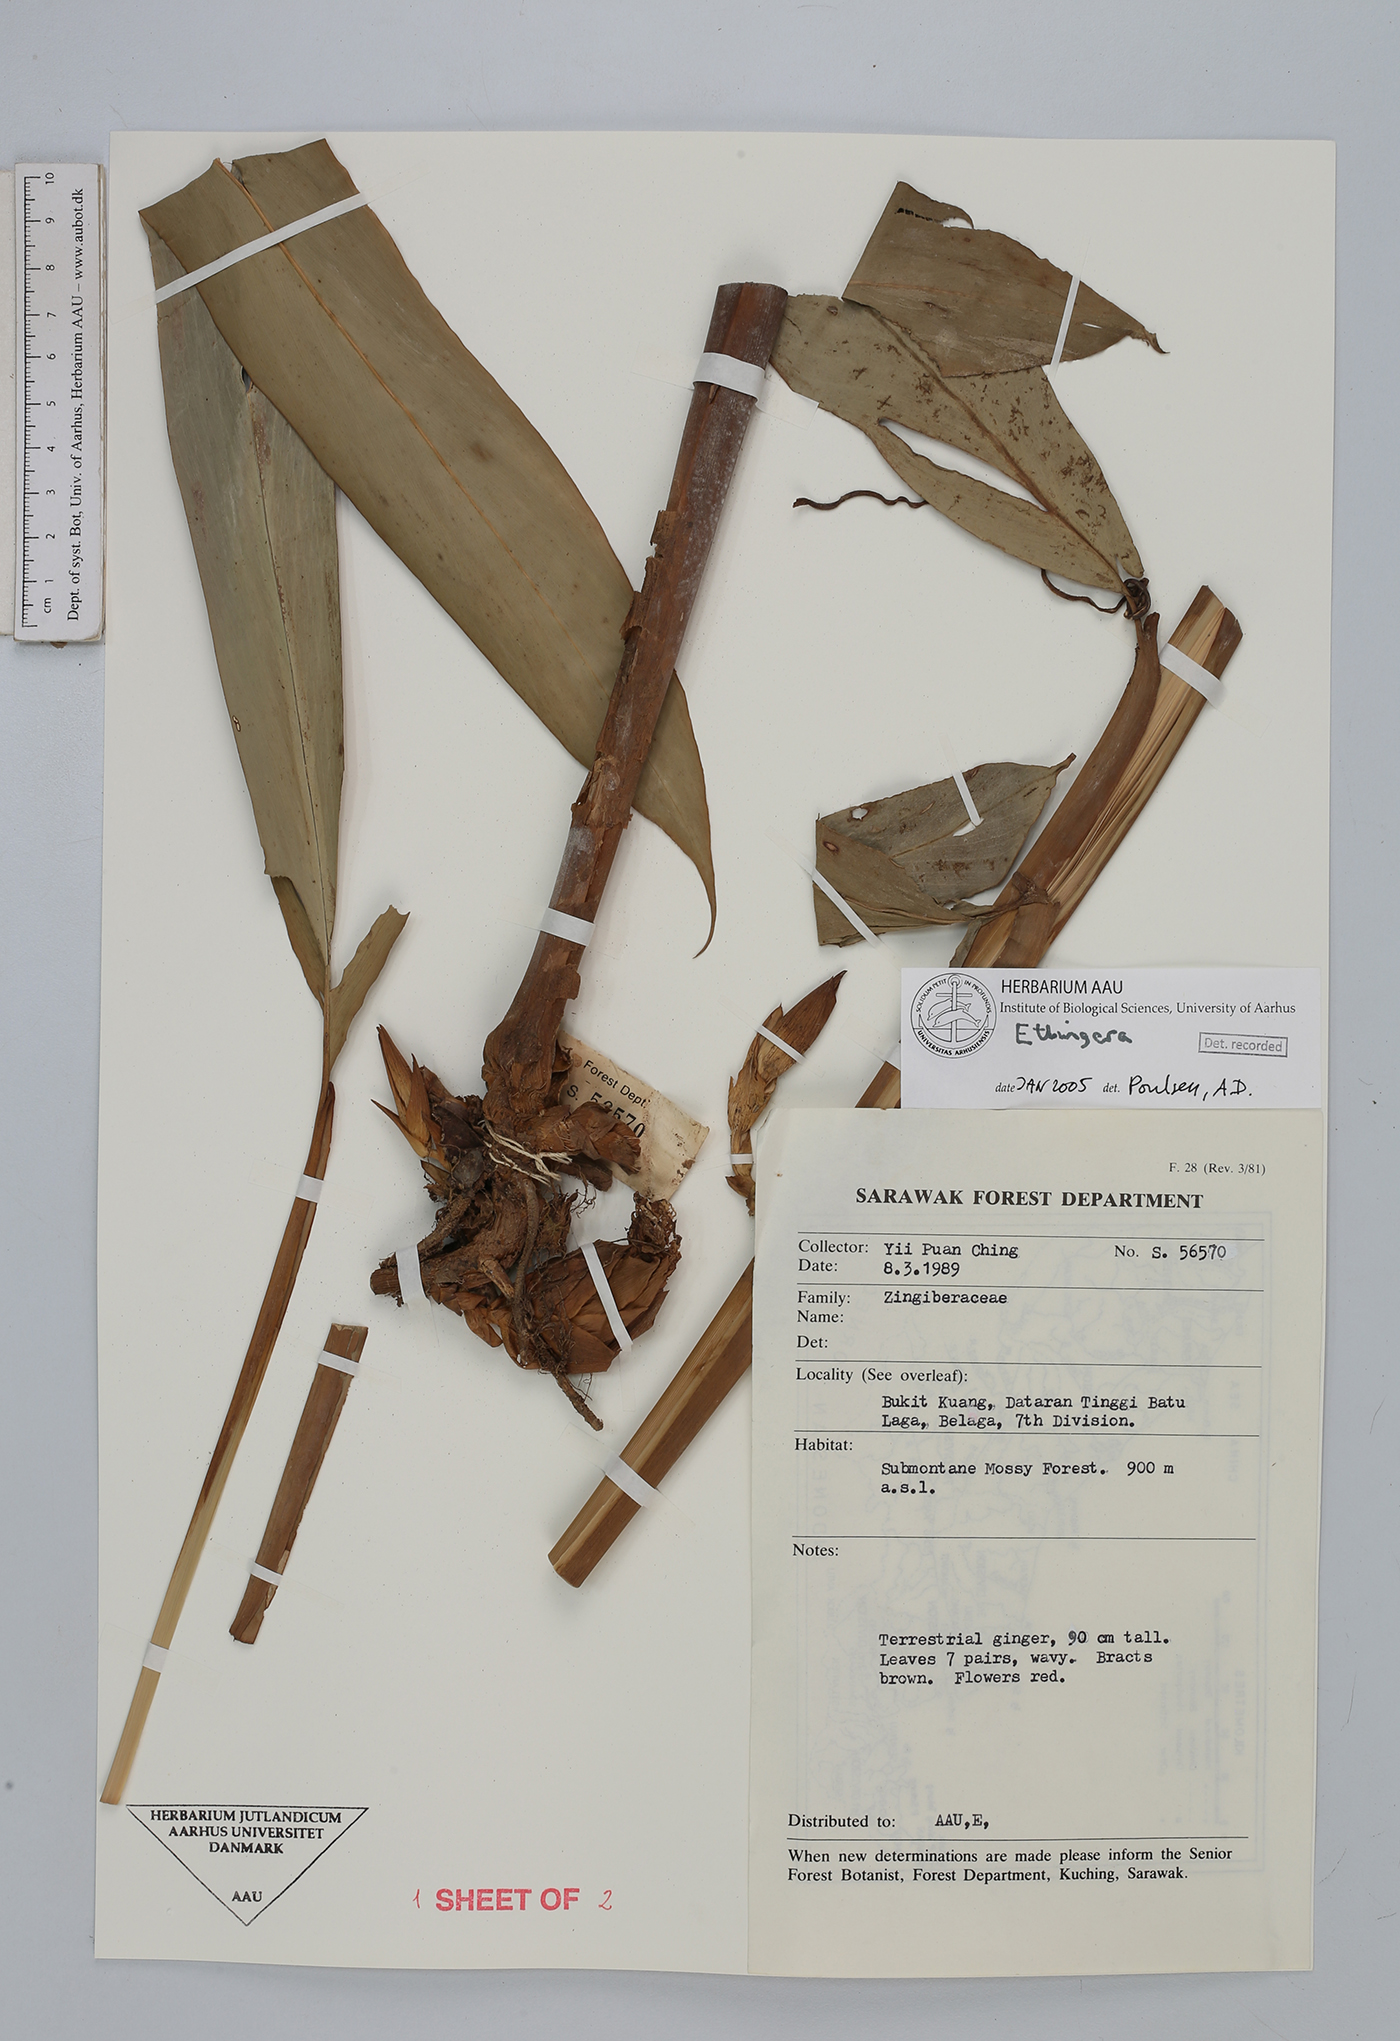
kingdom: Plantae
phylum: Tracheophyta
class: Liliopsida
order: Zingiberales
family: Zingiberaceae
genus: Etlingera
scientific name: Etlingera
